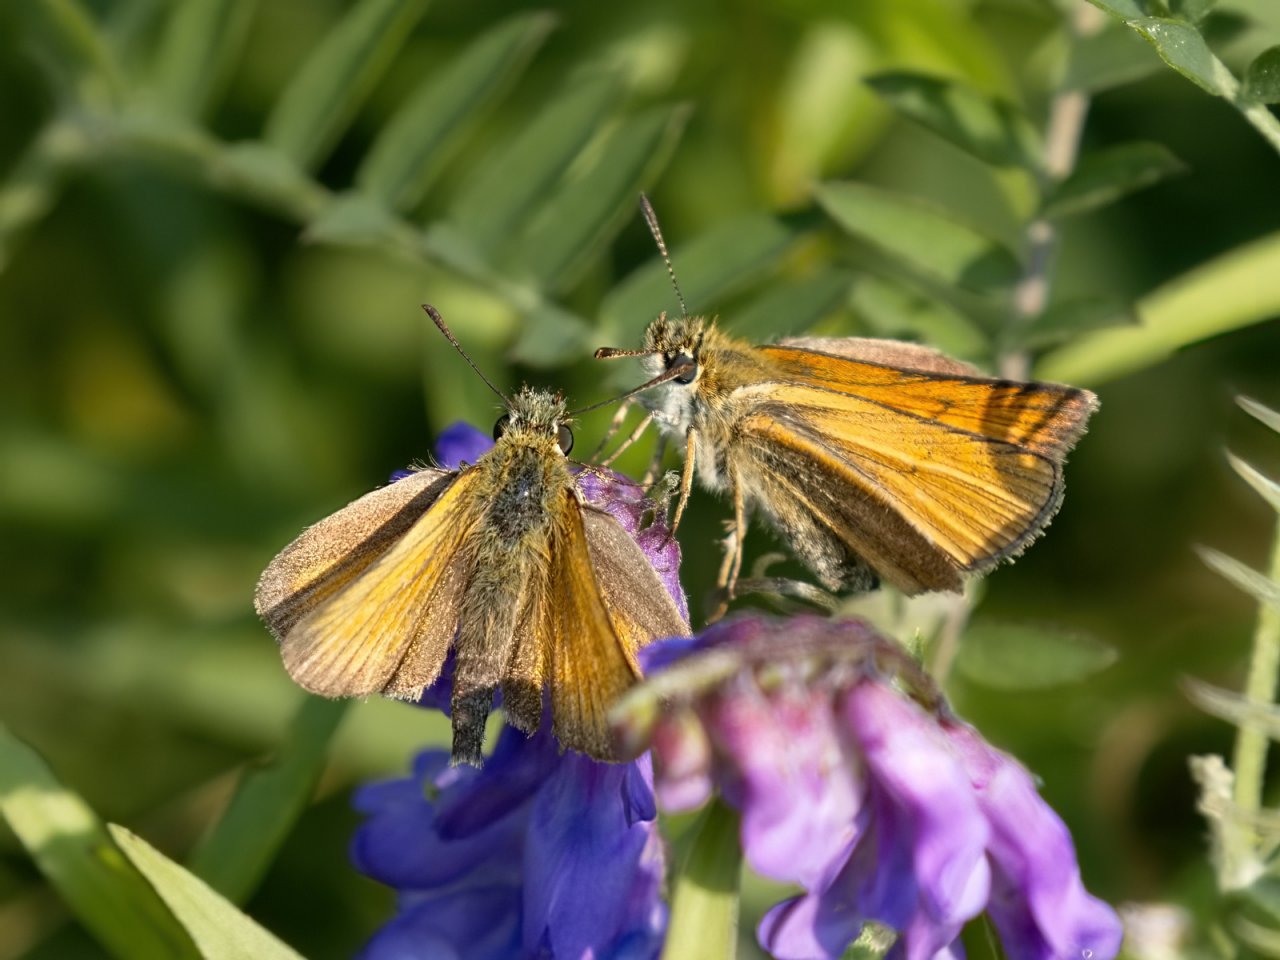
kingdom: Animalia
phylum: Arthropoda
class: Insecta
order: Lepidoptera
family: Hesperiidae
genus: Thymelicus
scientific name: Thymelicus lineola
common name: European Skipper
